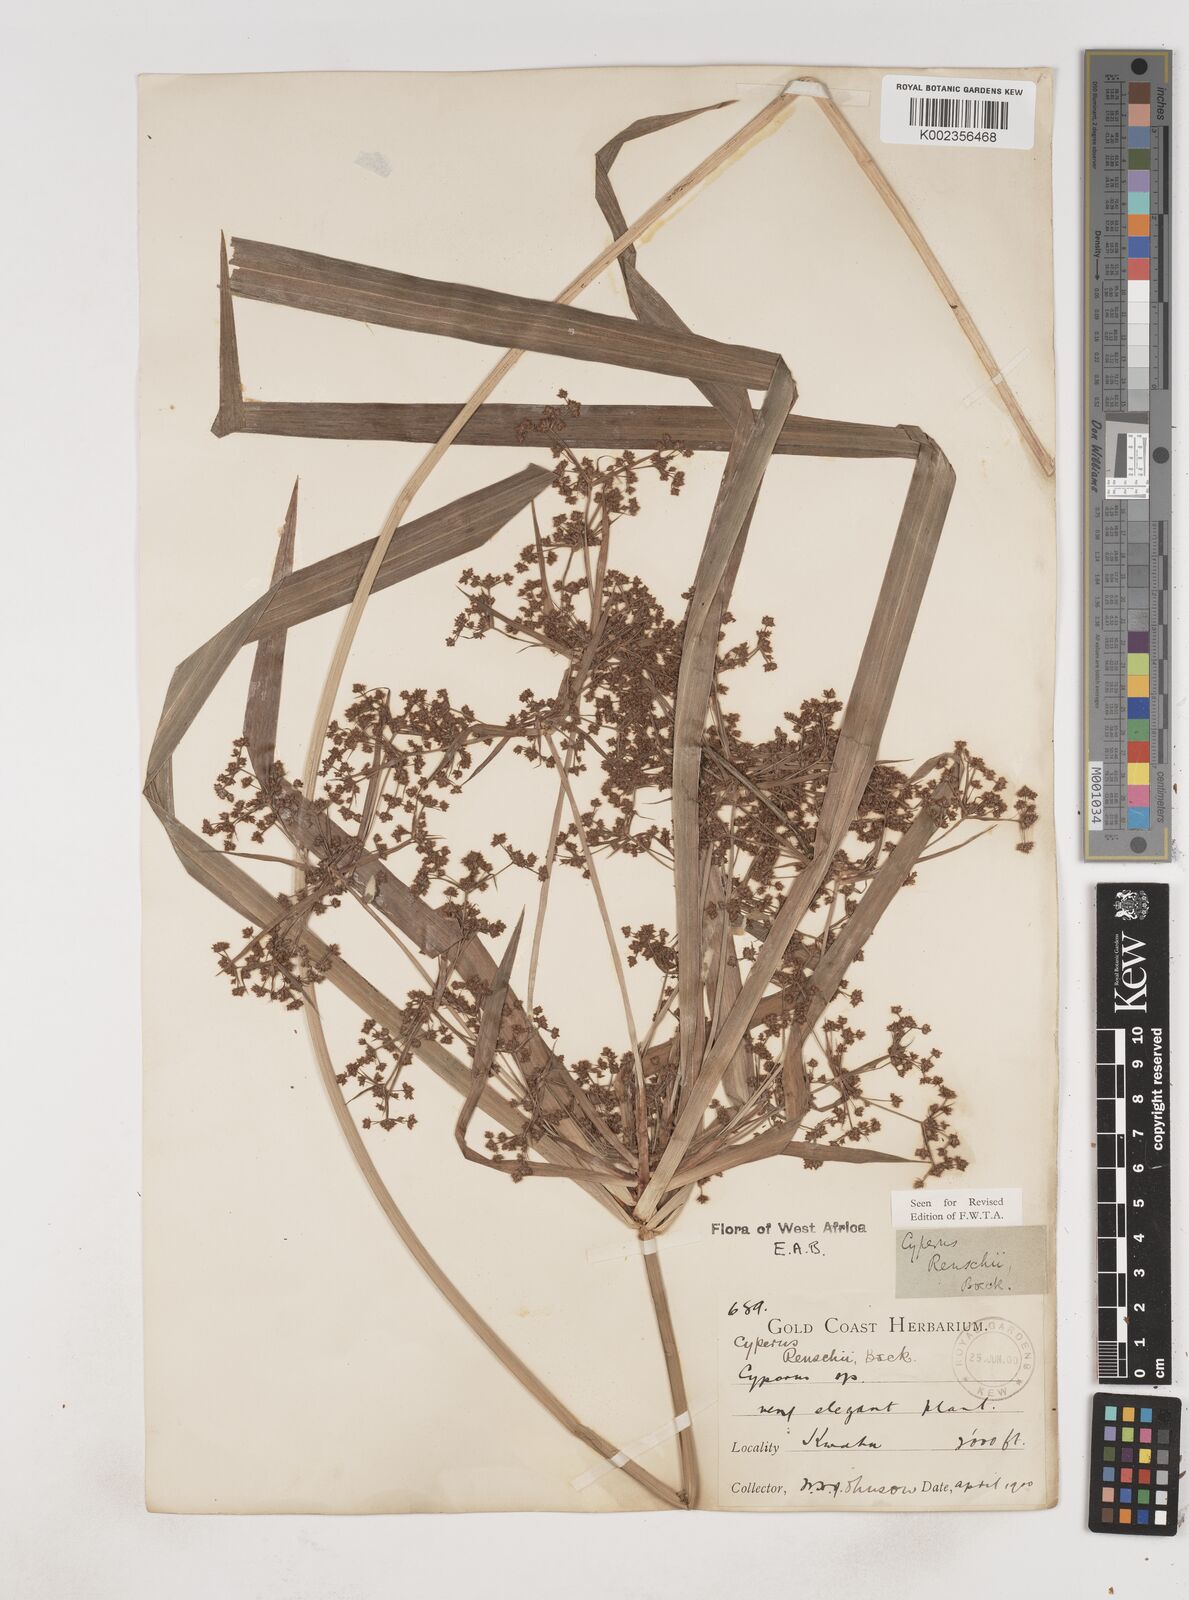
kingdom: Plantae
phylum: Tracheophyta
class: Liliopsida
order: Poales
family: Cyperaceae
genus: Cyperus
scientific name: Cyperus renschii
